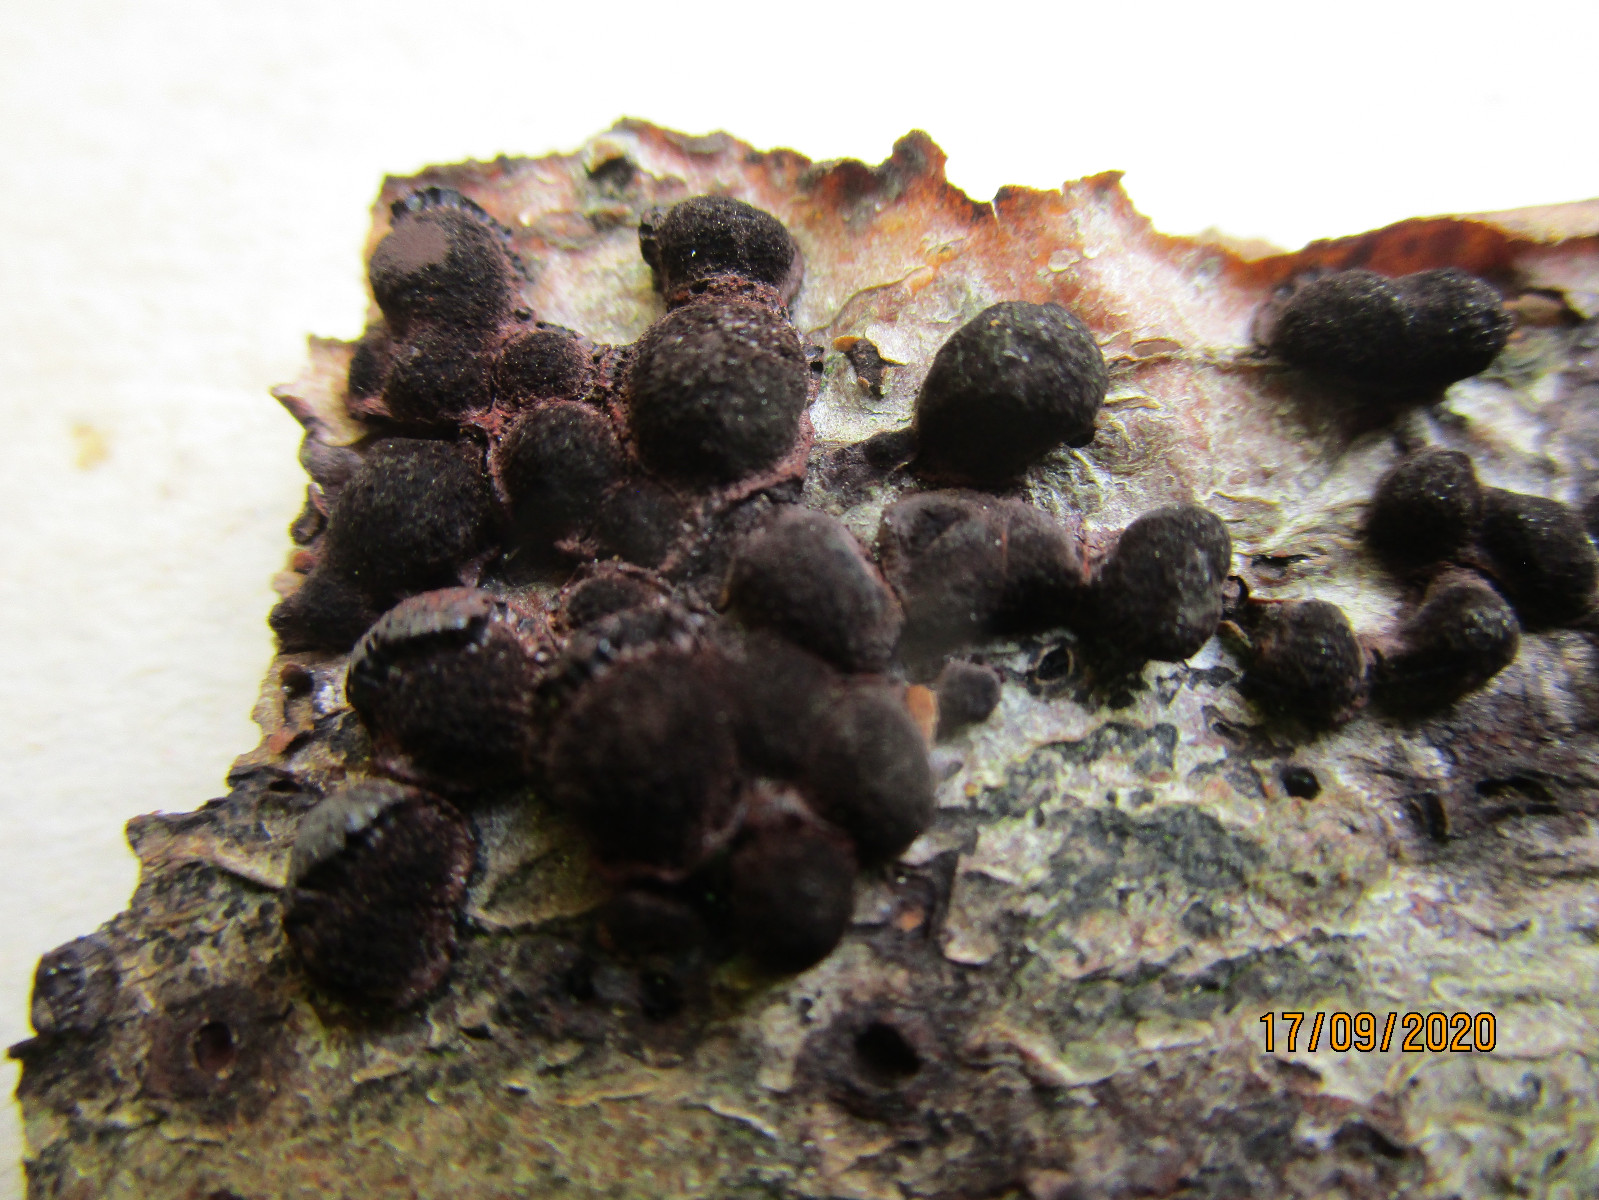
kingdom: Fungi
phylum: Ascomycota
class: Sordariomycetes
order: Xylariales
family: Hypoxylaceae
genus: Hypoxylon
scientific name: Hypoxylon fragiforme
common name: kuljordbær
